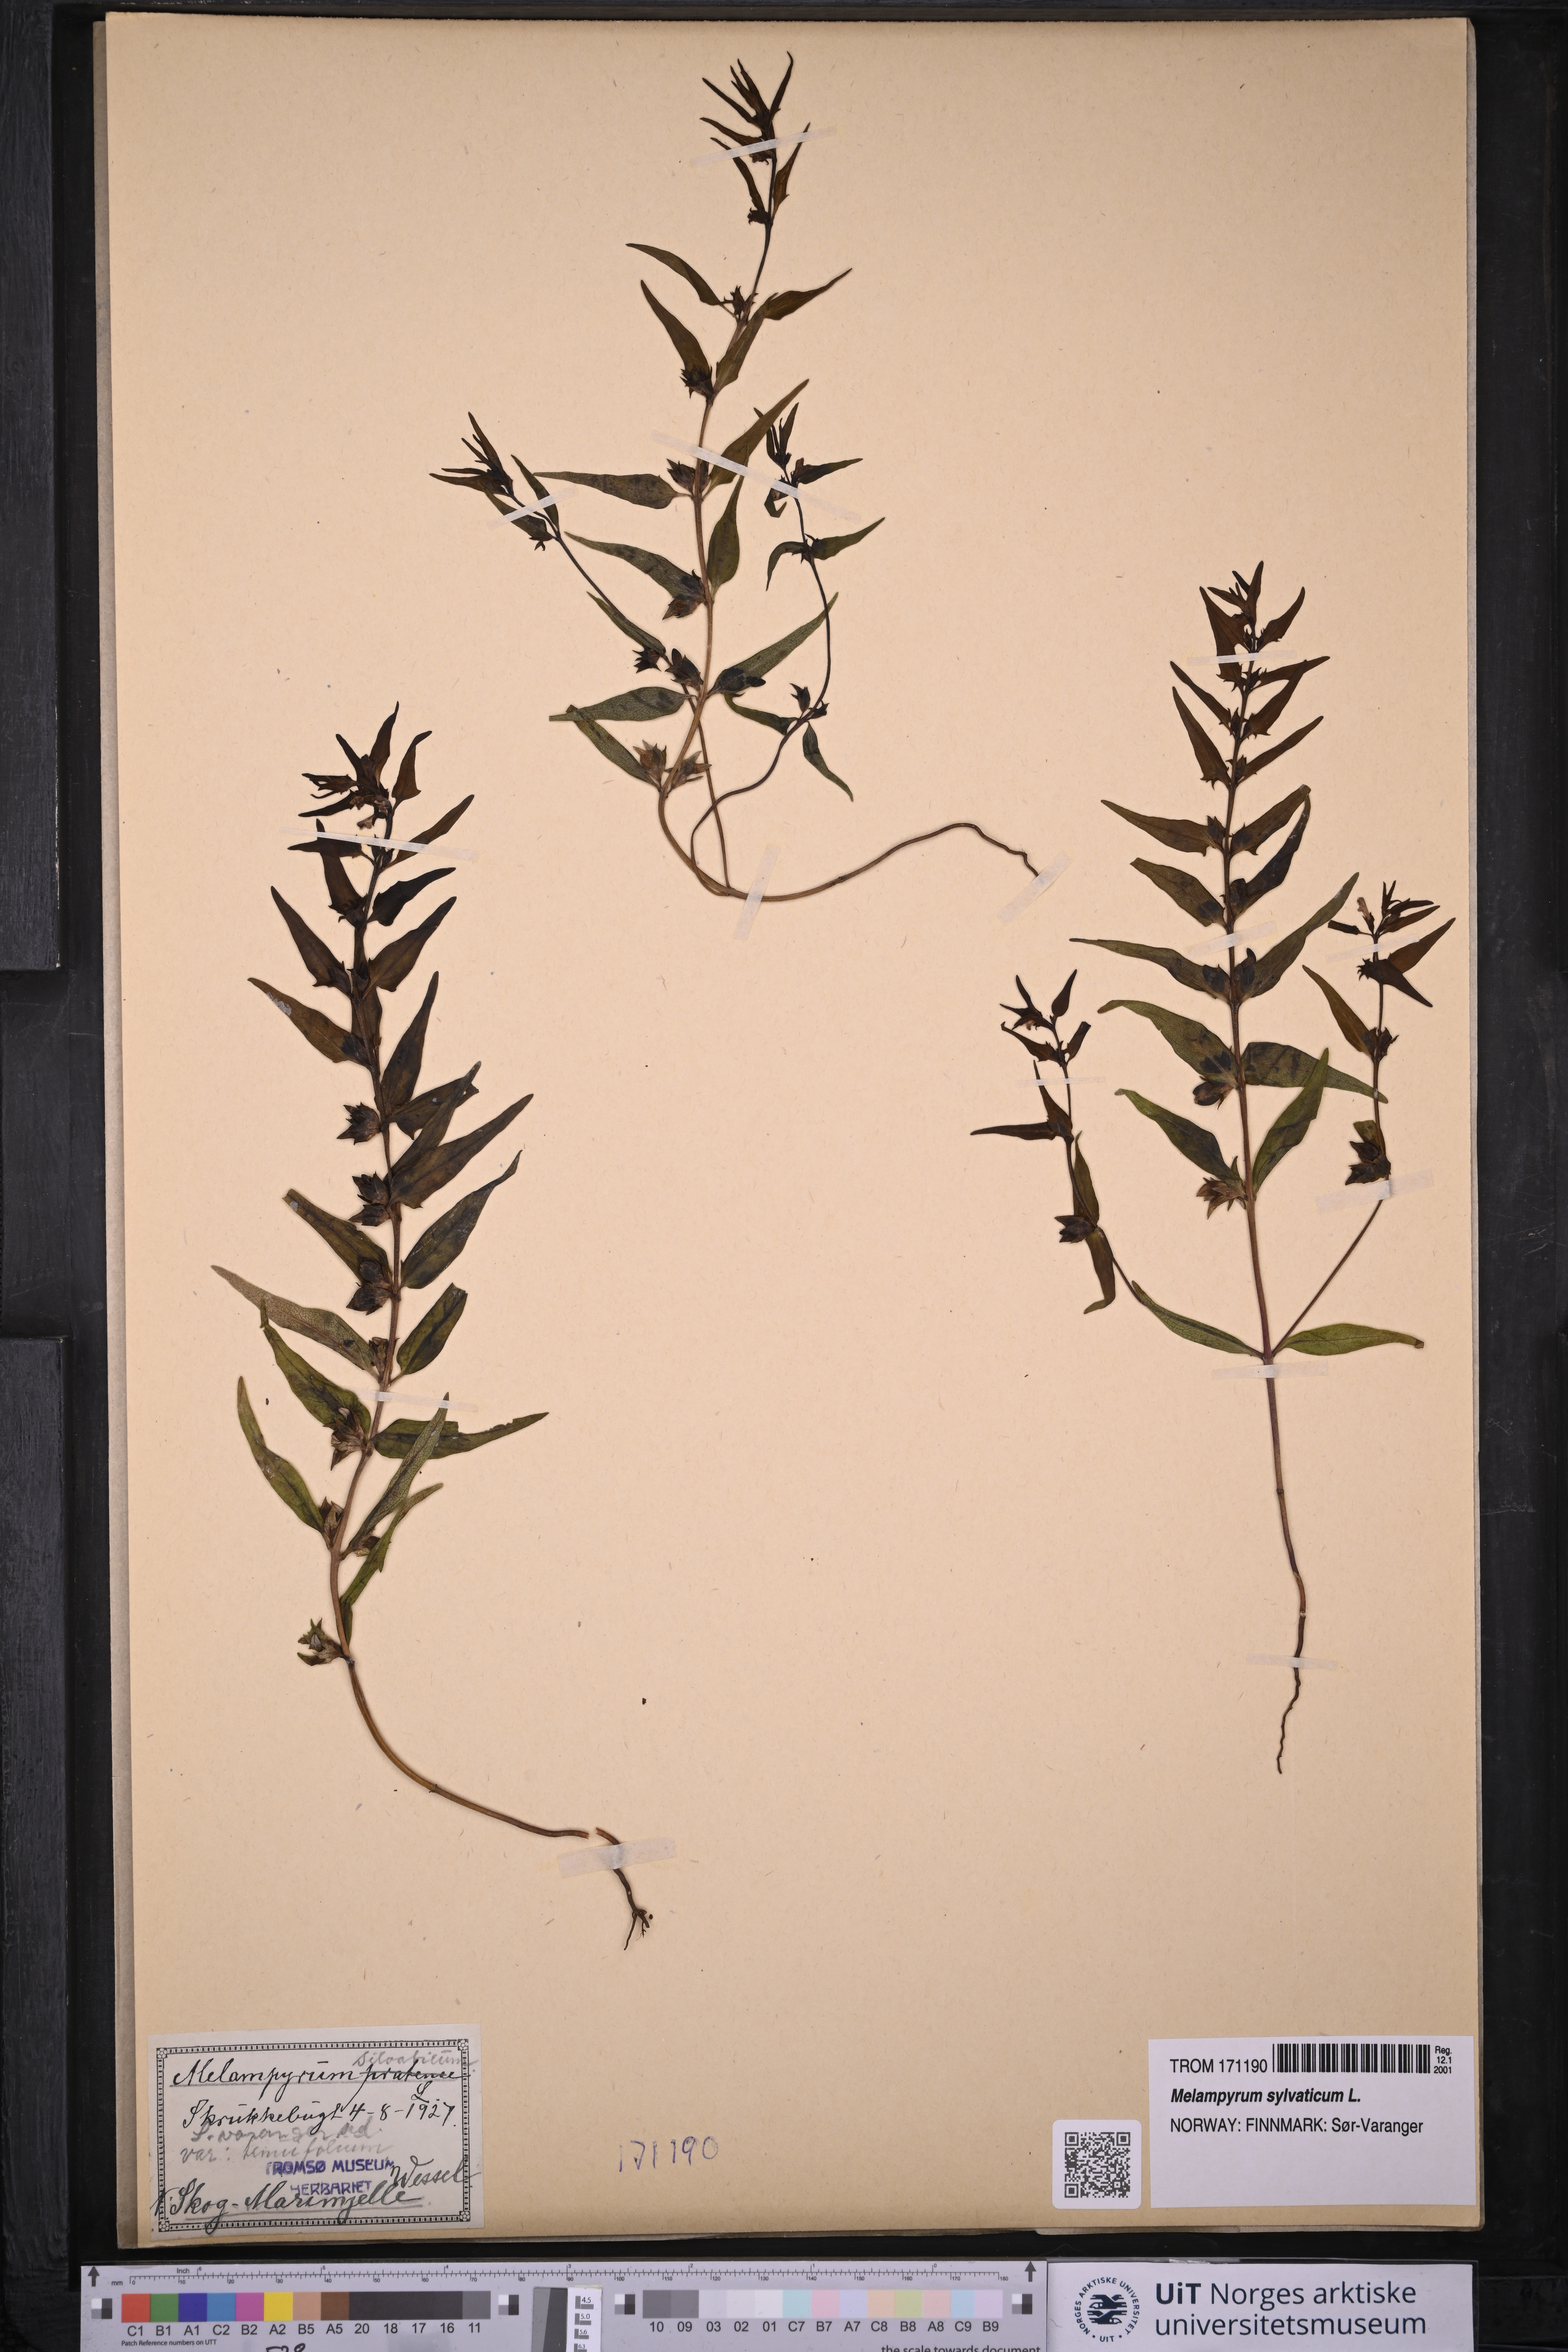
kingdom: Plantae
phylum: Tracheophyta
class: Magnoliopsida
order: Lamiales
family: Orobanchaceae
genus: Melampyrum
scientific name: Melampyrum sylvaticum
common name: Small cow-wheat
